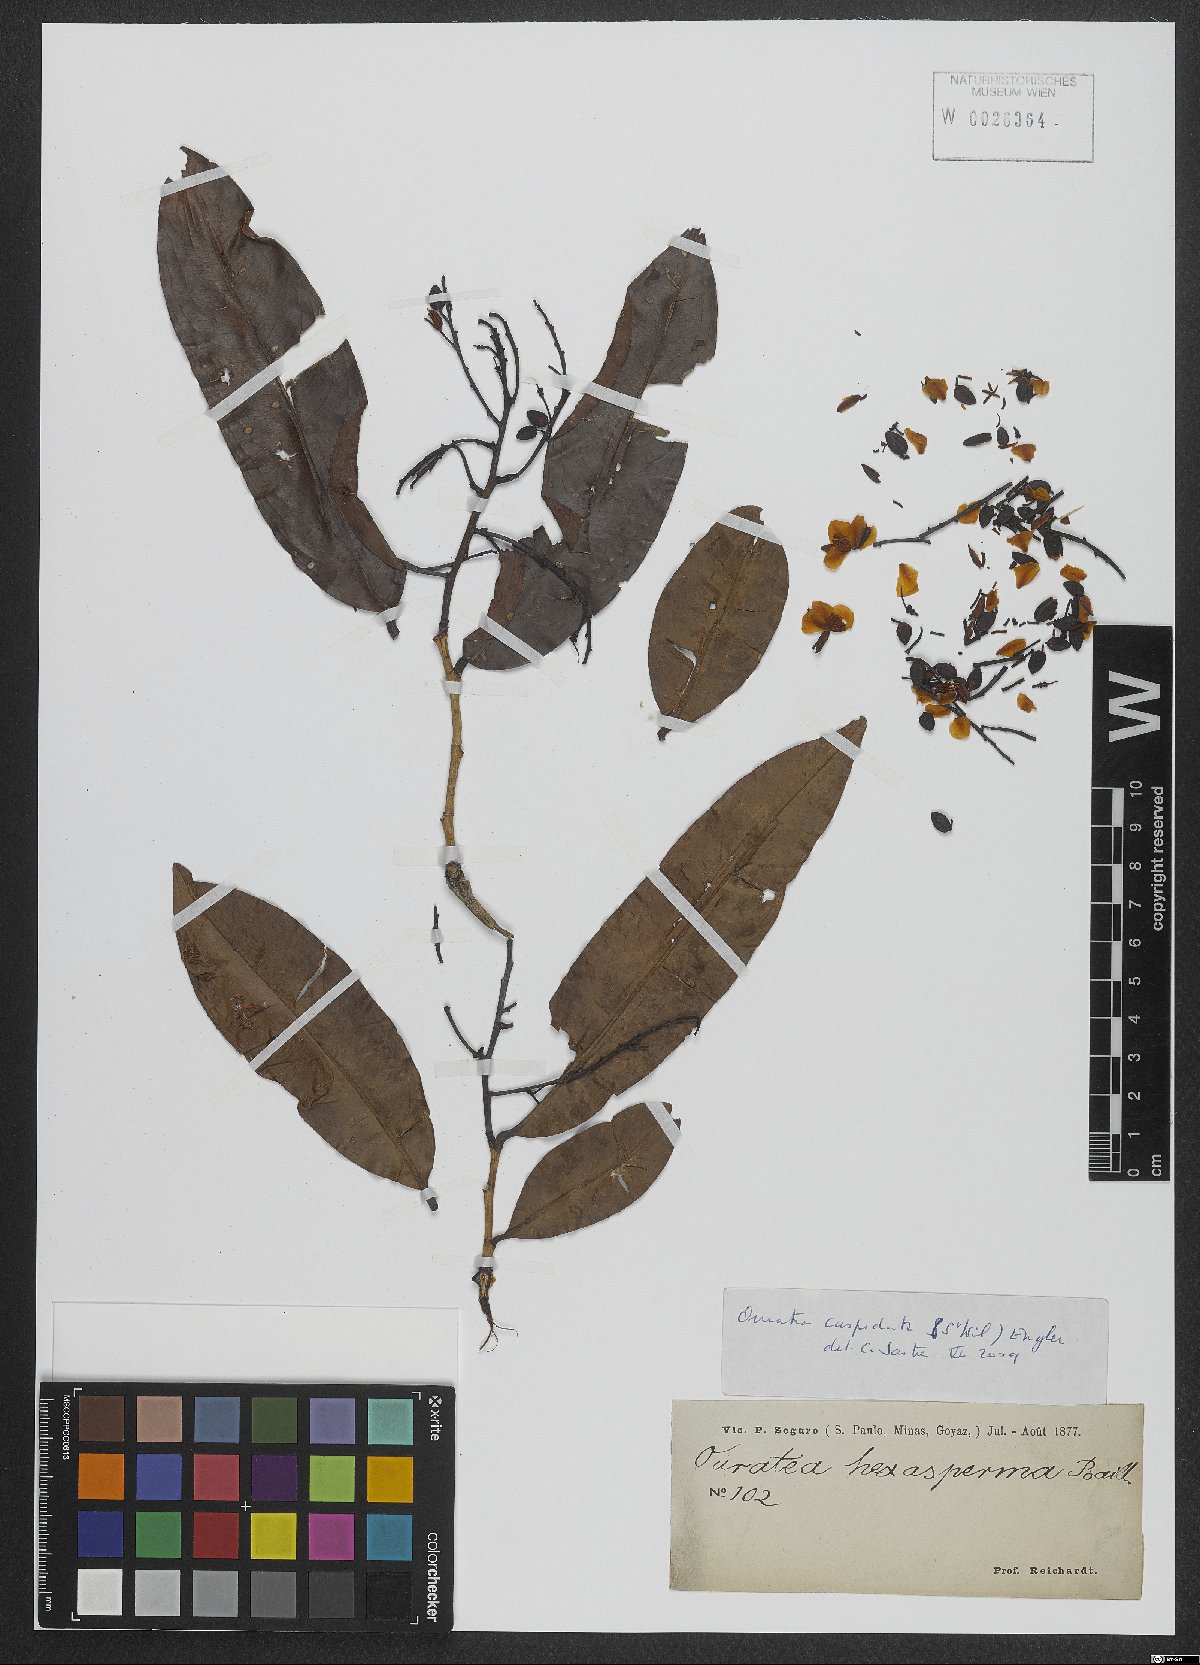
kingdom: Plantae
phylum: Tracheophyta
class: Magnoliopsida
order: Malpighiales
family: Ochnaceae
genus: Ouratea
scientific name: Ouratea cuspidata
